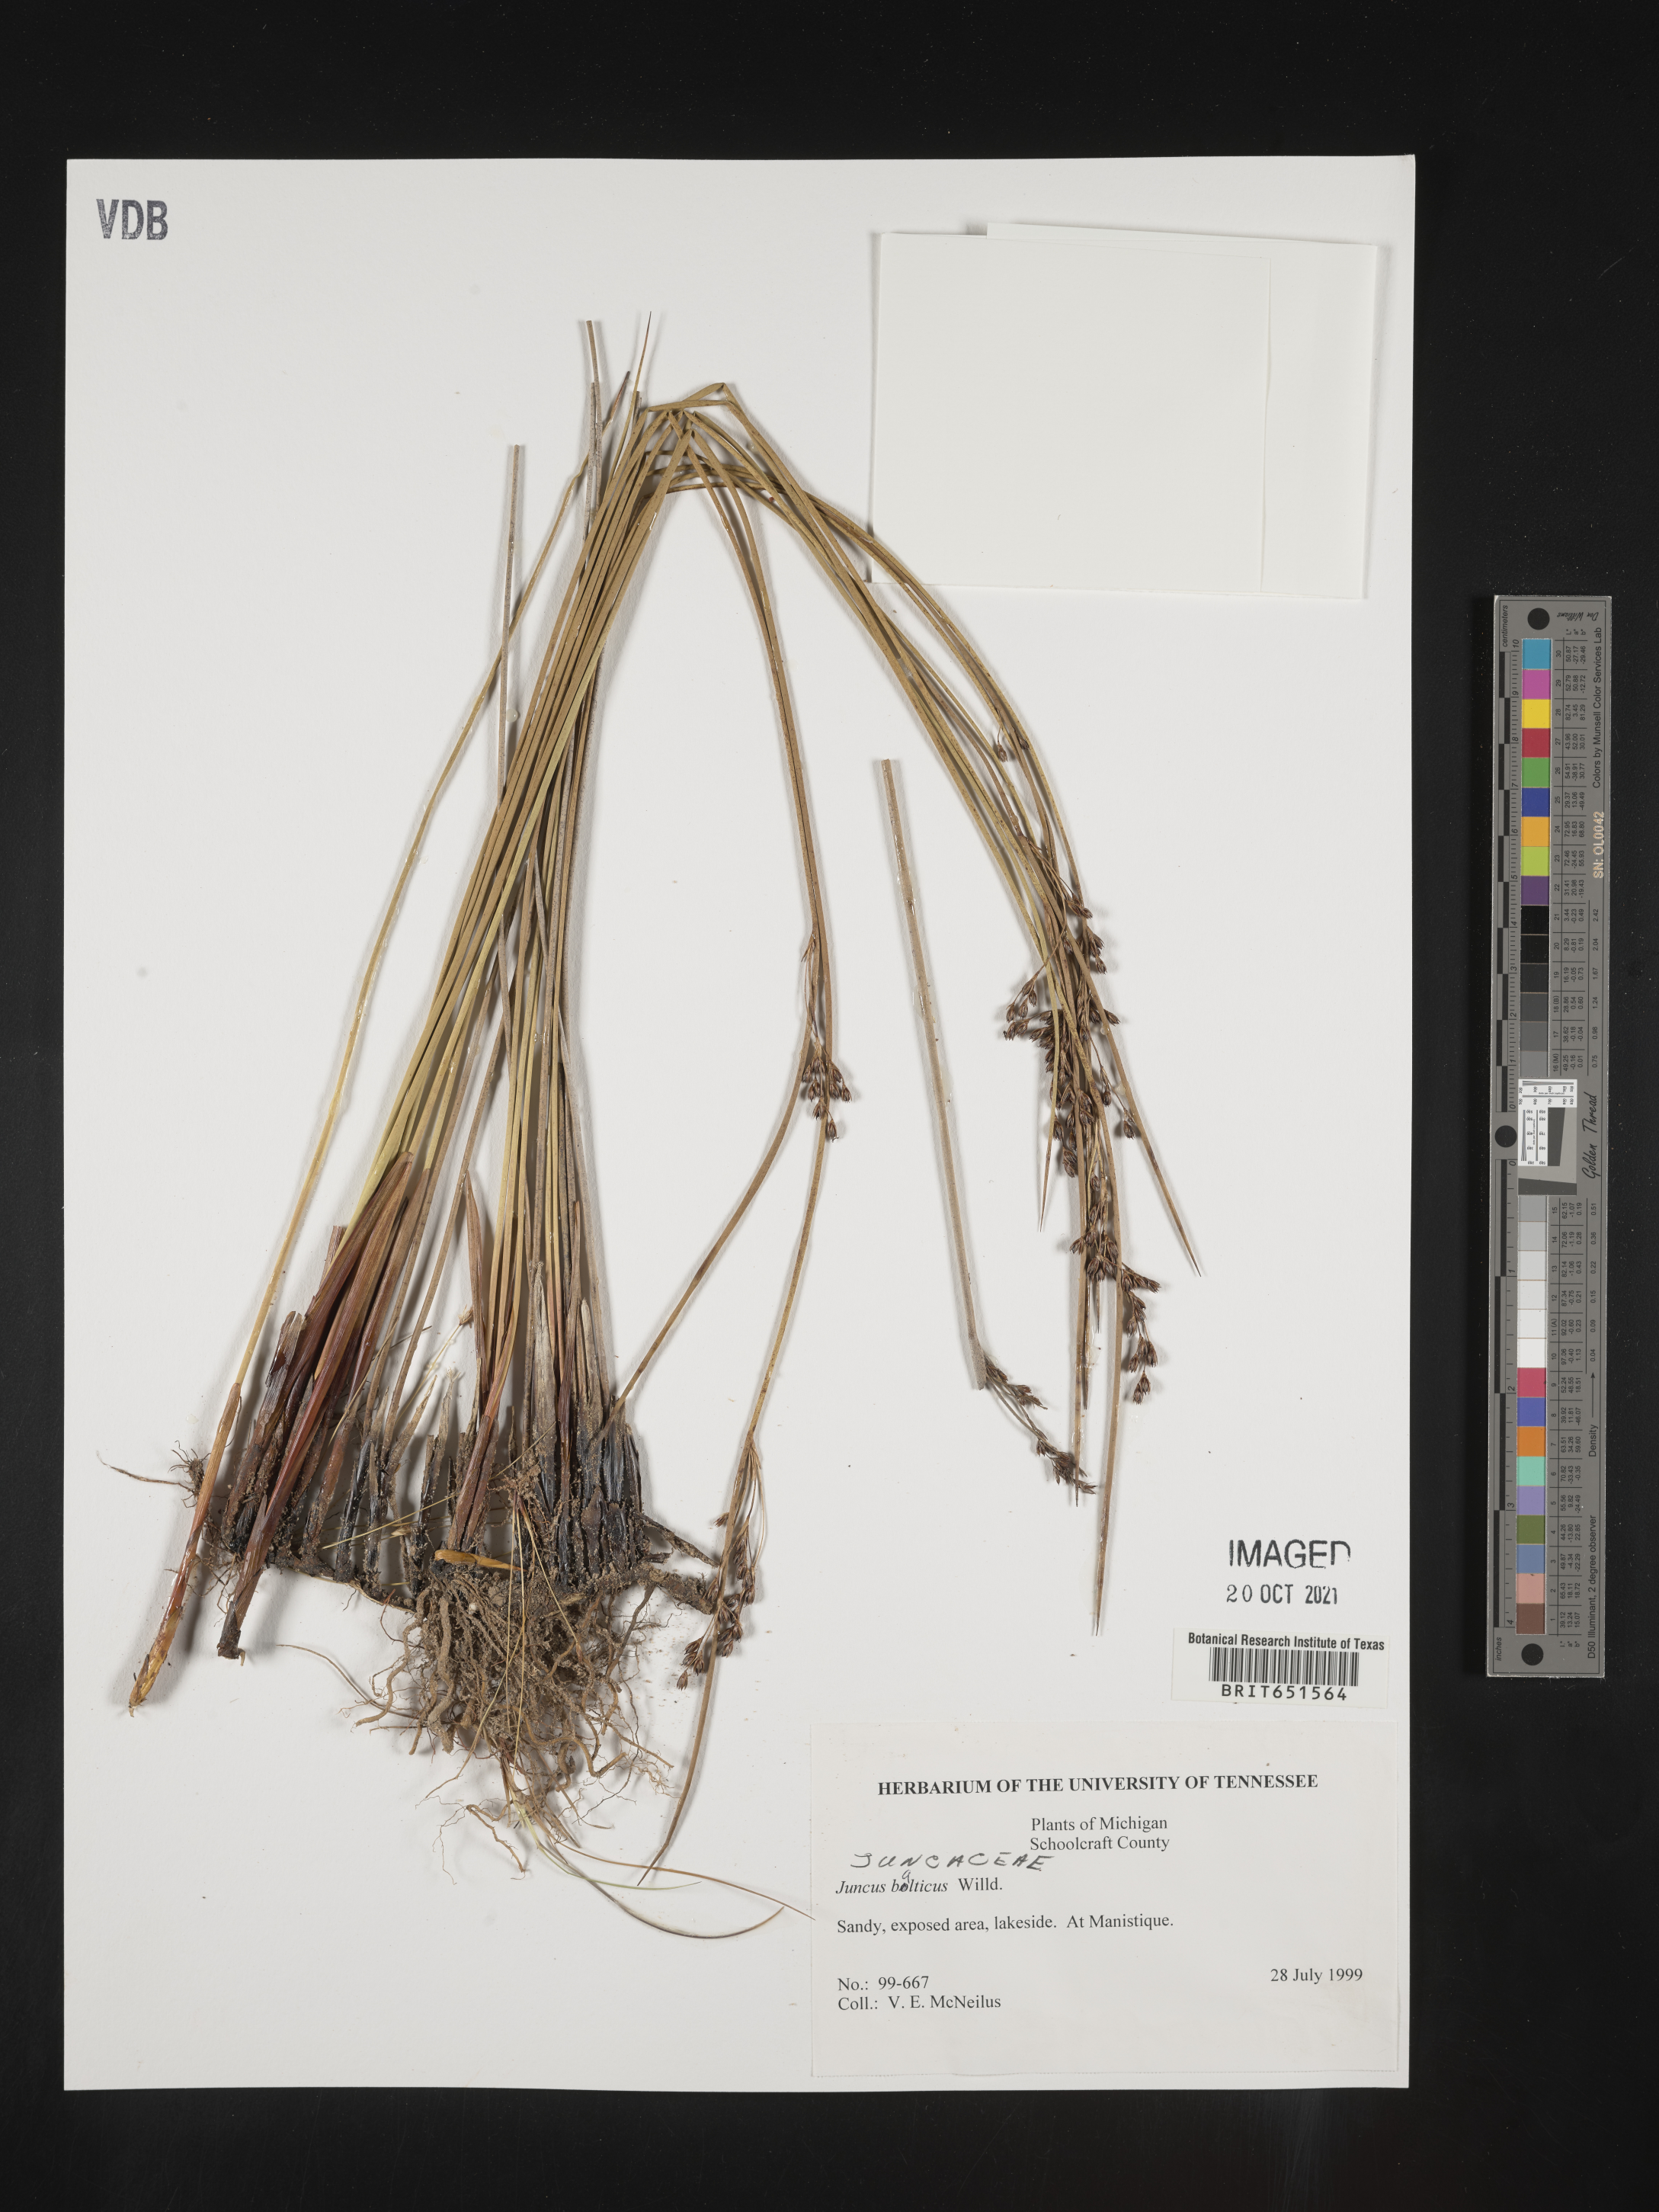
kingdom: Plantae
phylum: Tracheophyta
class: Liliopsida
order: Poales
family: Juncaceae
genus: Juncus
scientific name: Juncus balticus
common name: Baltic rush
